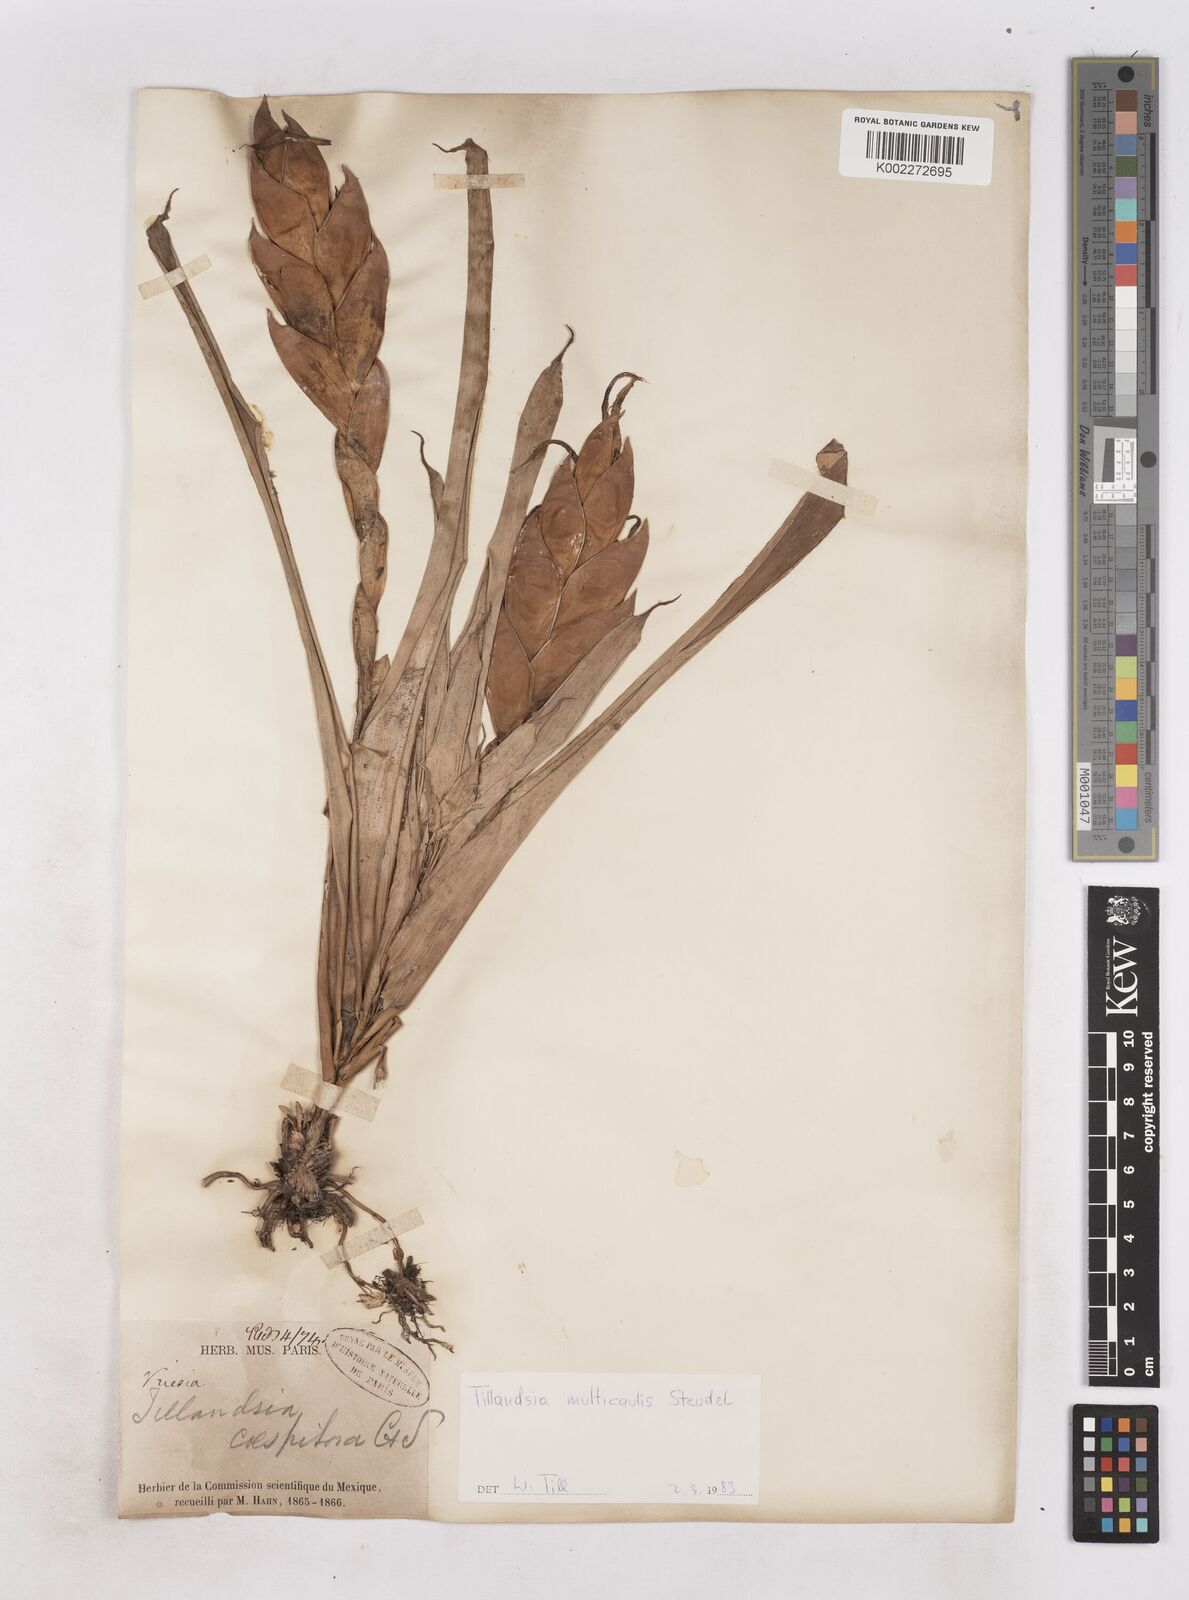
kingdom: Plantae
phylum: Tracheophyta
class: Liliopsida
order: Poales
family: Bromeliaceae
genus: Tillandsia
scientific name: Tillandsia multicaulis
